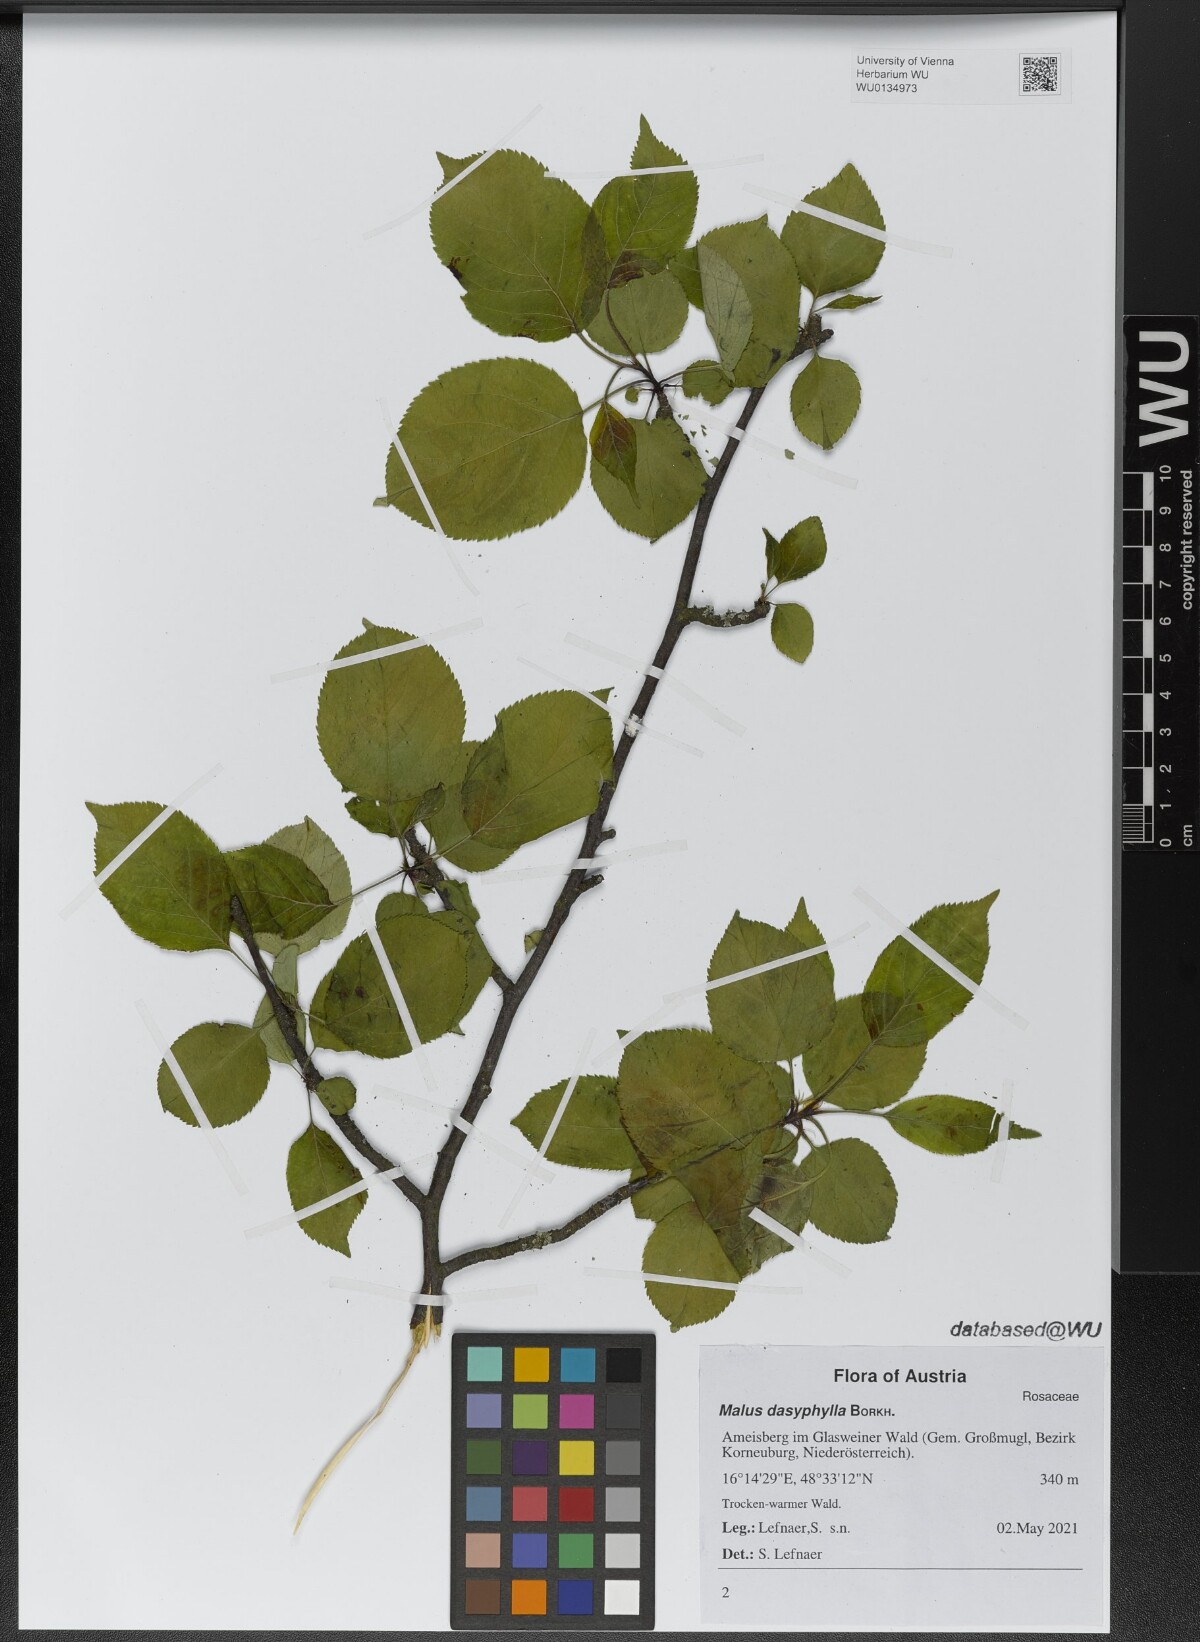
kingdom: Plantae
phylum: Tracheophyta
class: Magnoliopsida
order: Rosales
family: Rosaceae
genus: Malus
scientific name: Malus dasyphylla
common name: Paradise apple
